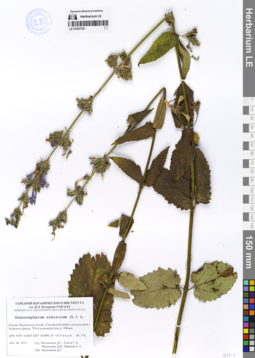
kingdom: Plantae
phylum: Tracheophyta
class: Magnoliopsida
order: Lamiales
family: Lamiaceae
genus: Nepeta
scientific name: Nepeta sibirica
